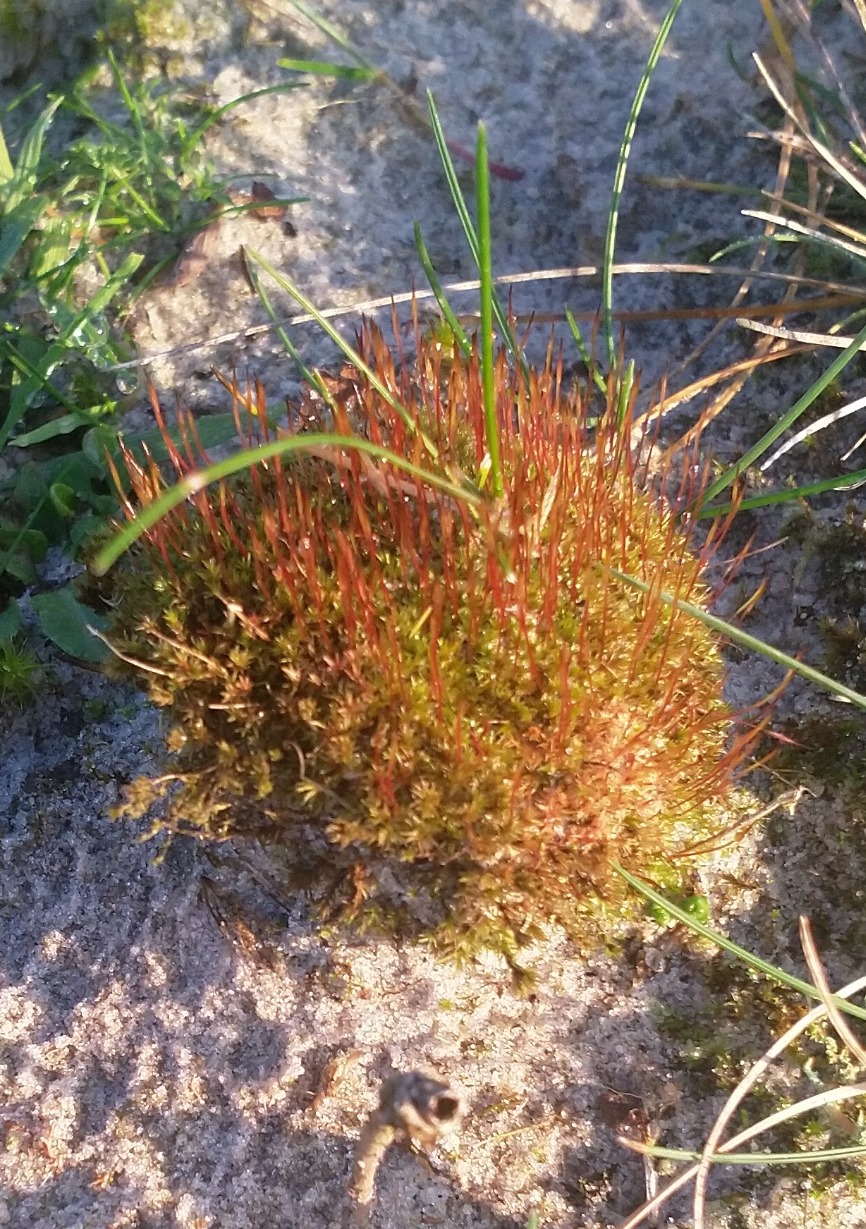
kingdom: Plantae
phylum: Bryophyta
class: Bryopsida
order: Dicranales
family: Ditrichaceae
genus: Ceratodon
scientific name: Ceratodon purpureus
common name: Rød horntand
